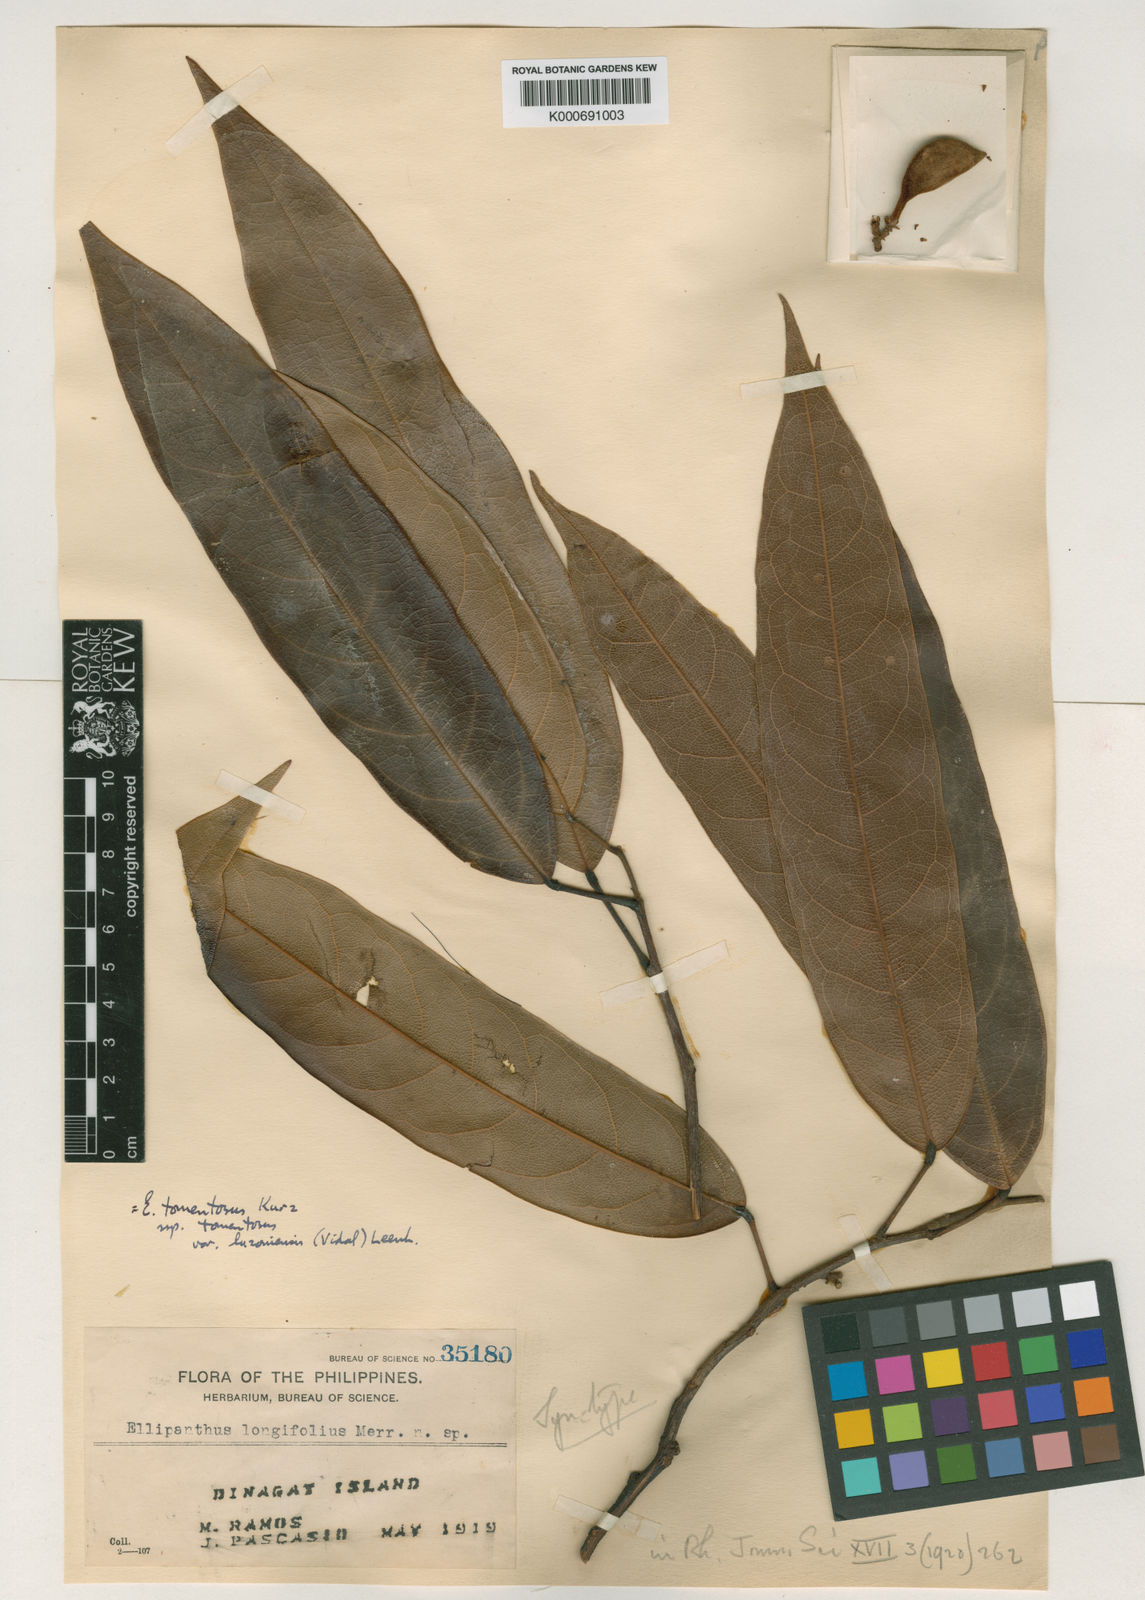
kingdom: Plantae
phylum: Tracheophyta
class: Magnoliopsida
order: Oxalidales
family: Connaraceae
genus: Ellipanthus
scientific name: Ellipanthus tomentosus
